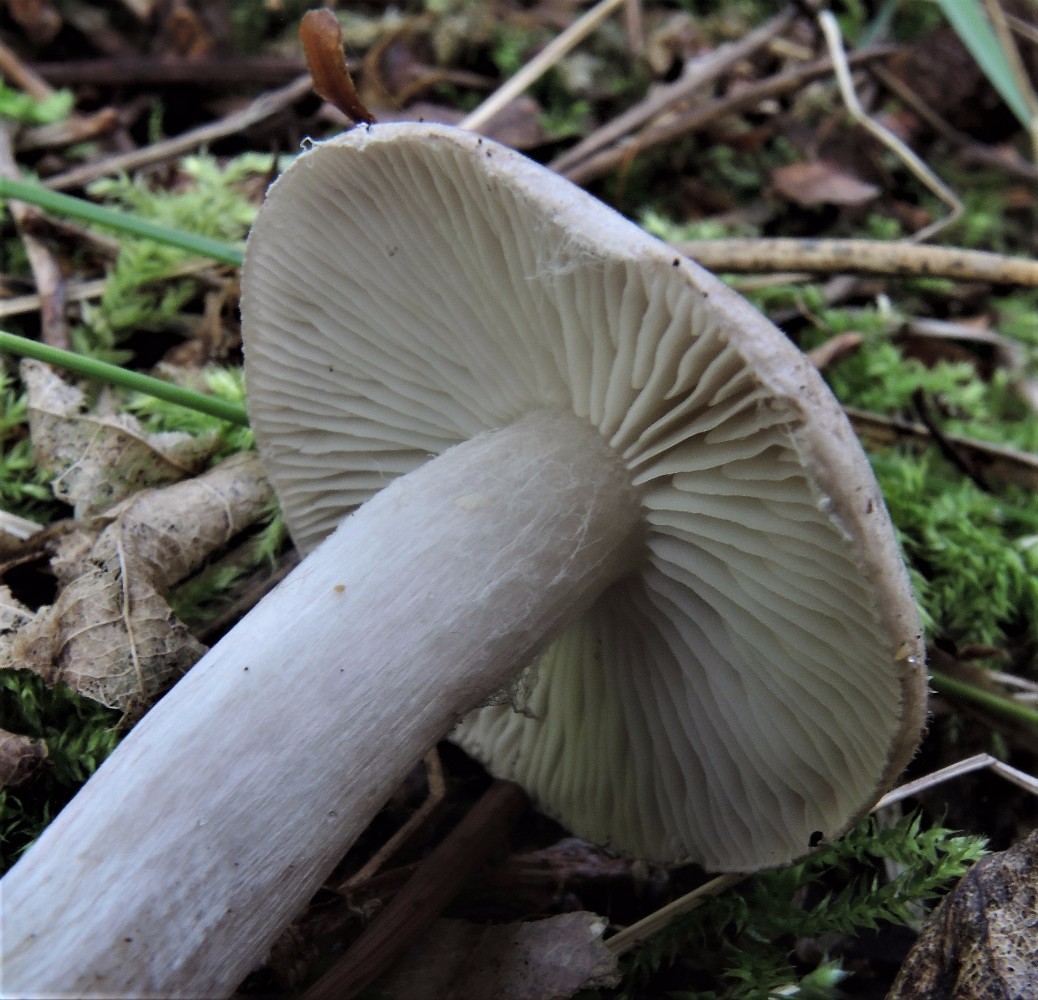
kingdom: Fungi
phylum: Basidiomycota
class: Agaricomycetes
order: Agaricales
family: Tricholomataceae
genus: Tricholoma
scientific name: Tricholoma argyraceum
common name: slør-ridderhat
